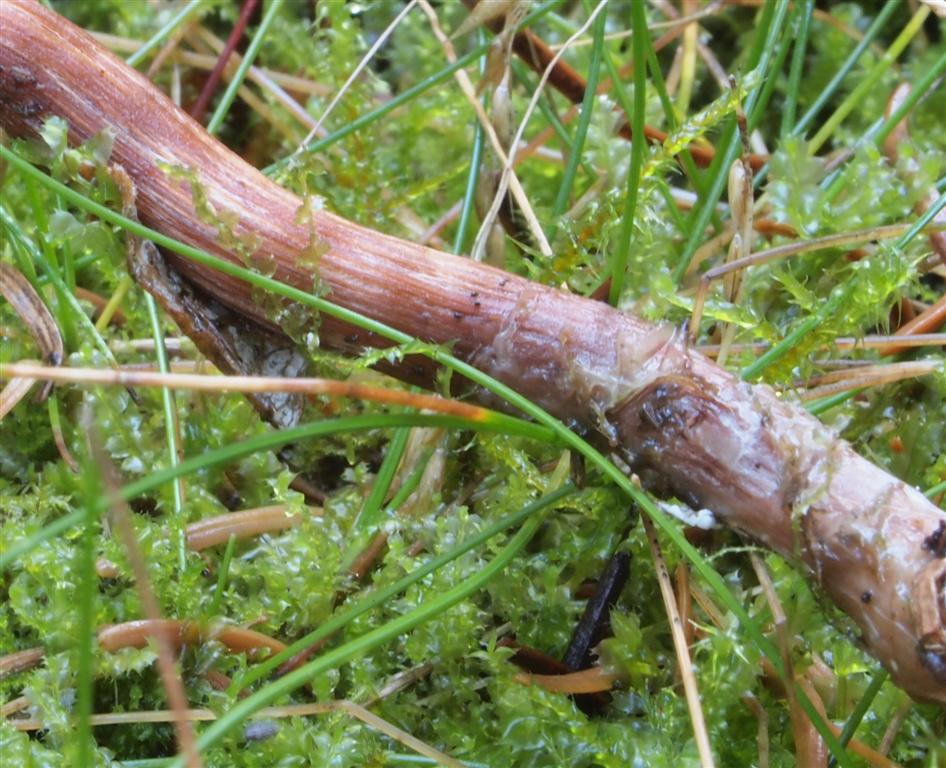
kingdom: Fungi
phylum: Basidiomycota
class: Agaricomycetes
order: Agaricales
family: Hydnangiaceae
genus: Laccaria
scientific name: Laccaria proxima
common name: stor ametysthat
